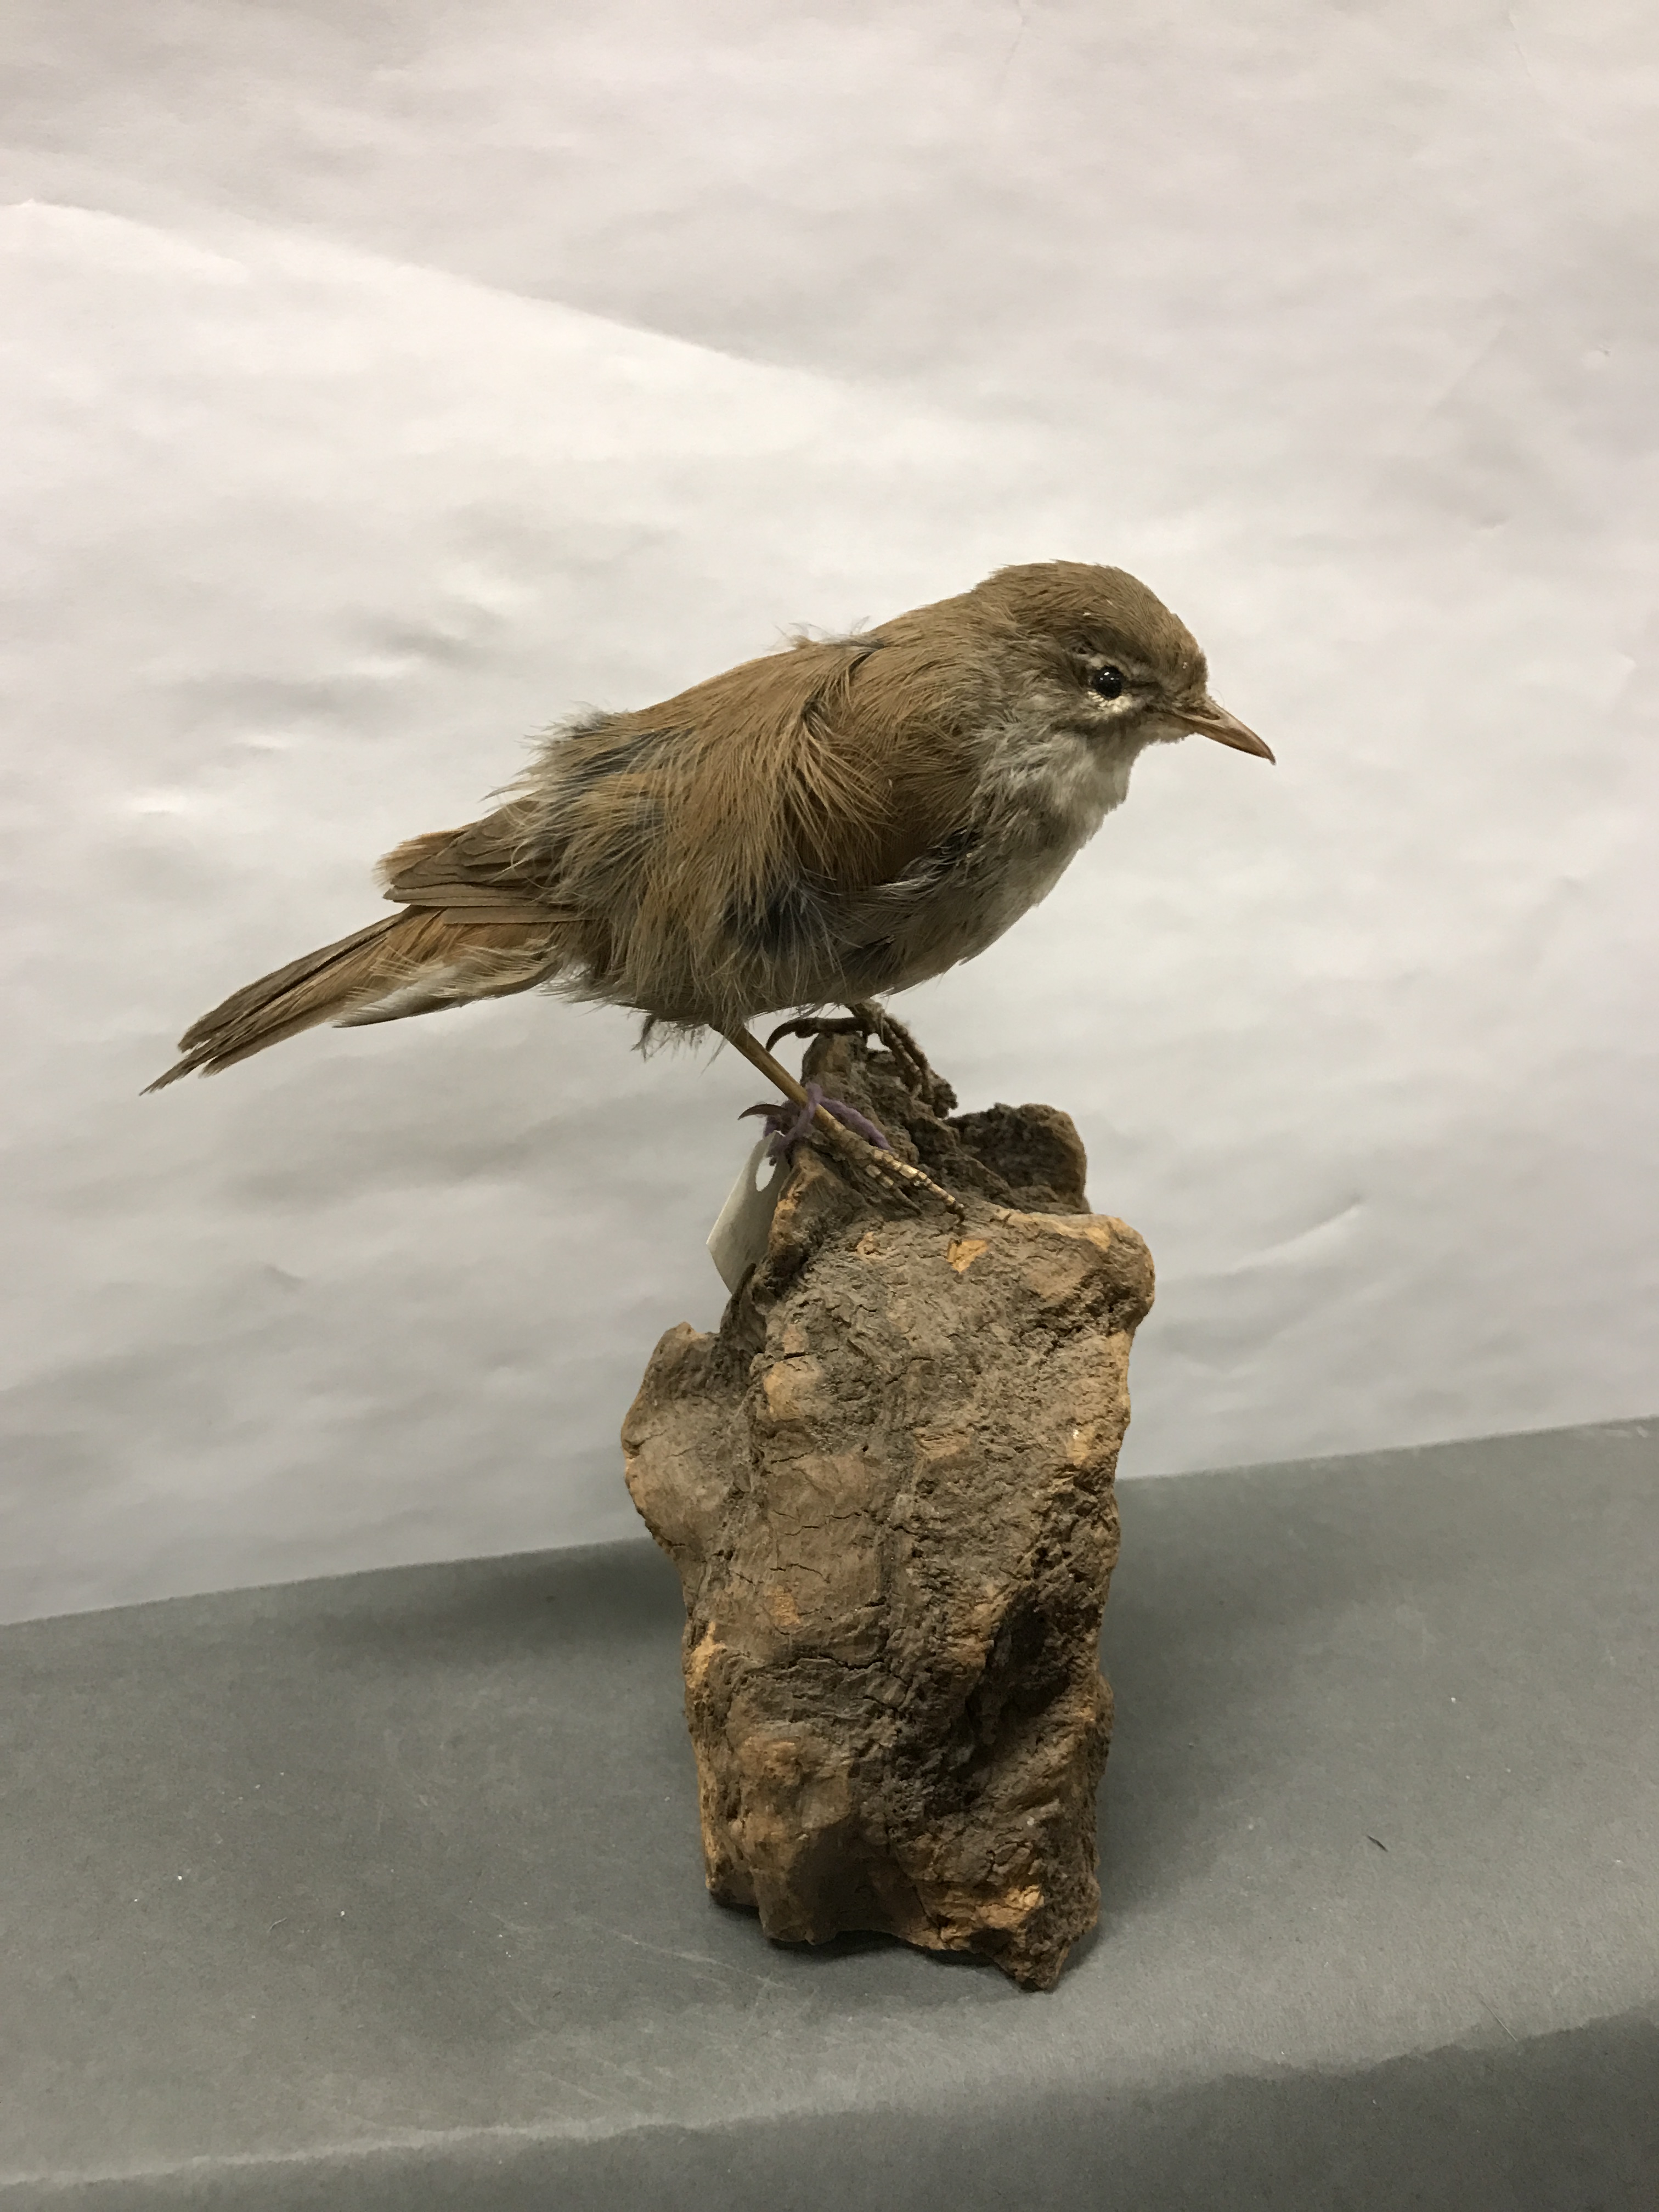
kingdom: Animalia
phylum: Chordata
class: Aves
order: Passeriformes
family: Locustellidae
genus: Locustella
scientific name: Locustella luscinioides
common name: Savi's warbler
